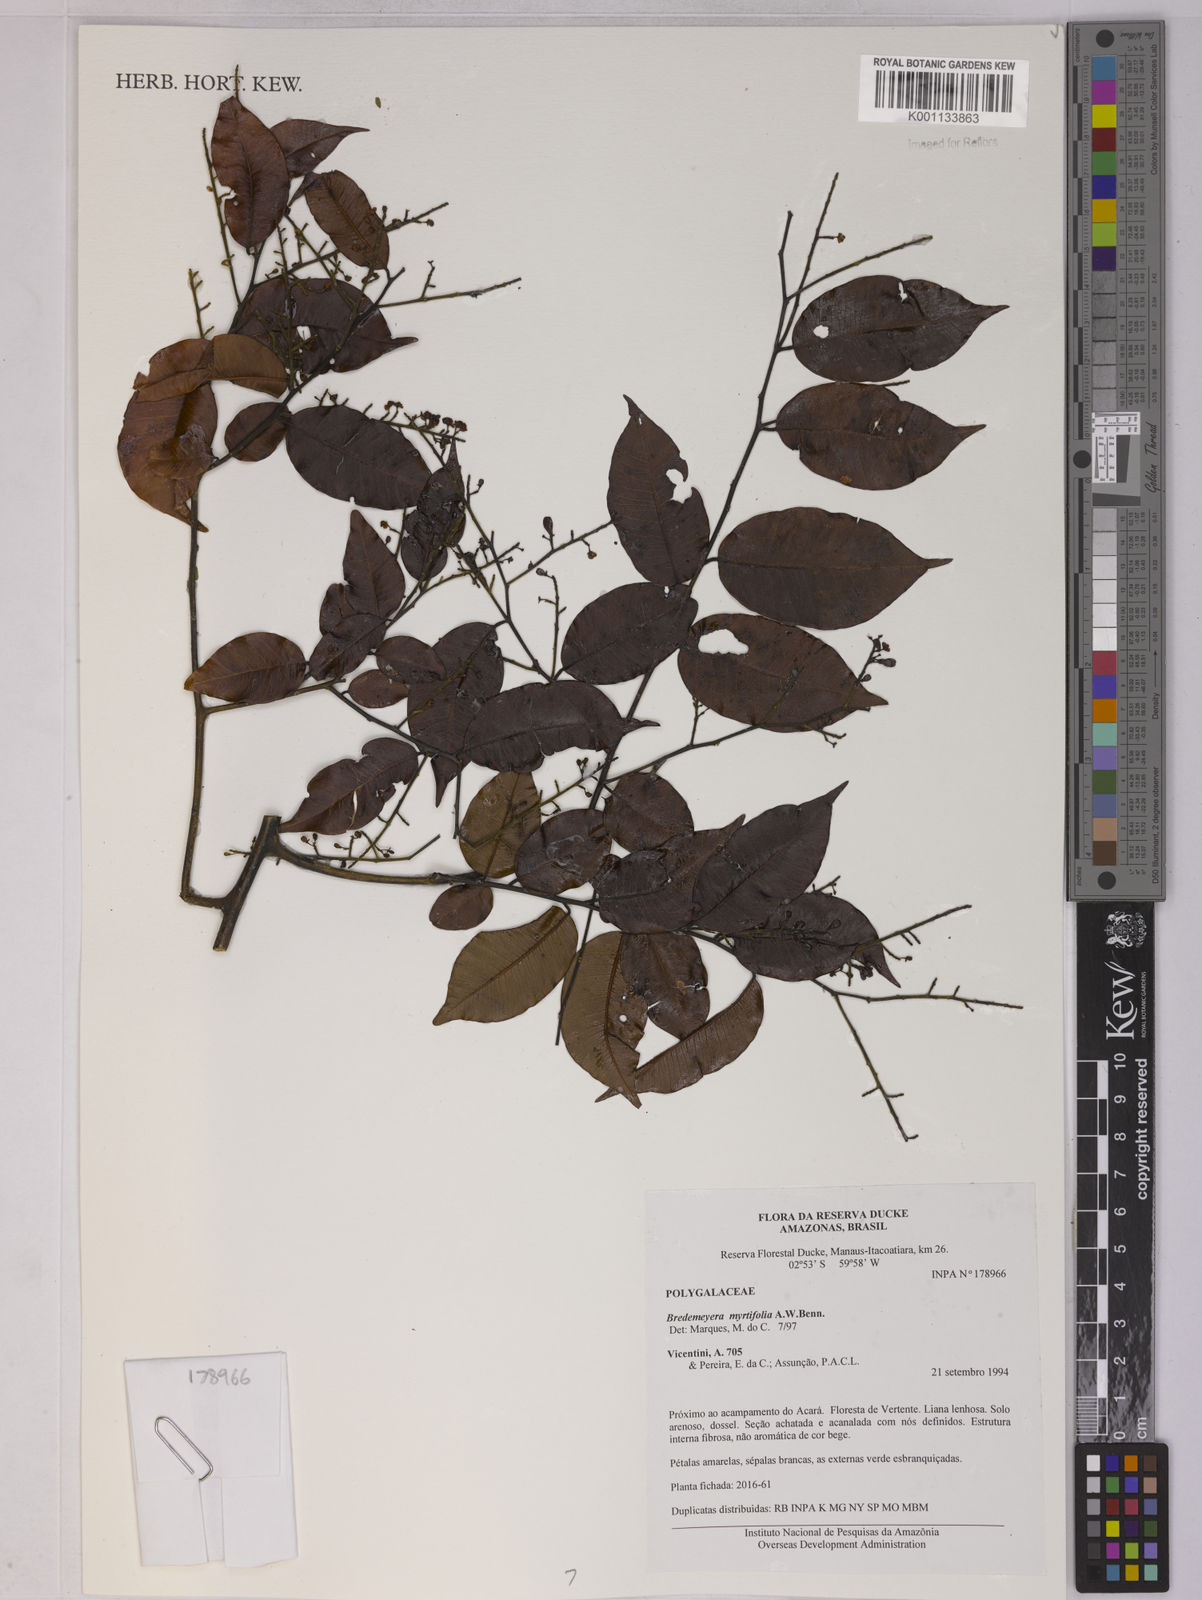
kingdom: Plantae
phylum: Tracheophyta
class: Magnoliopsida
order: Fabales
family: Polygalaceae
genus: Bredemeyera
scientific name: Bredemeyera
